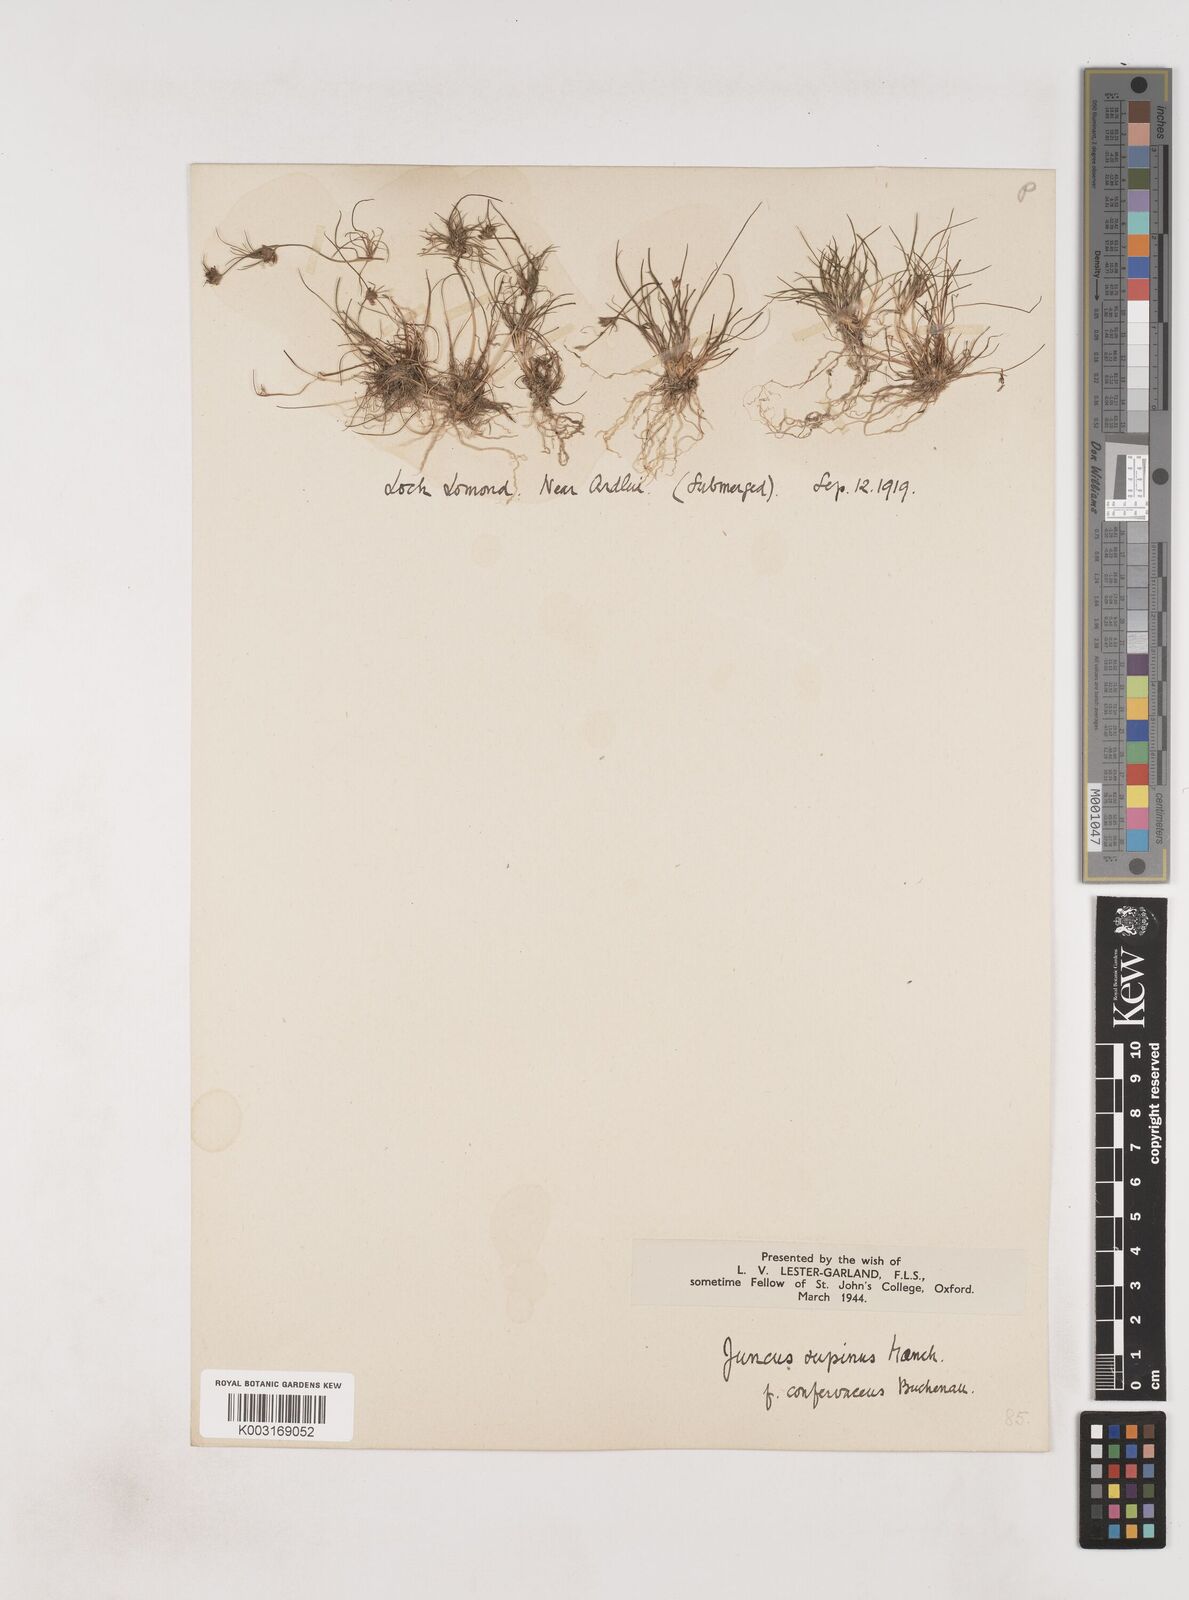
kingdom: Plantae
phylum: Tracheophyta
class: Liliopsida
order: Poales
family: Juncaceae
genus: Juncus
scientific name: Juncus bulbosus
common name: Bulbous rush
